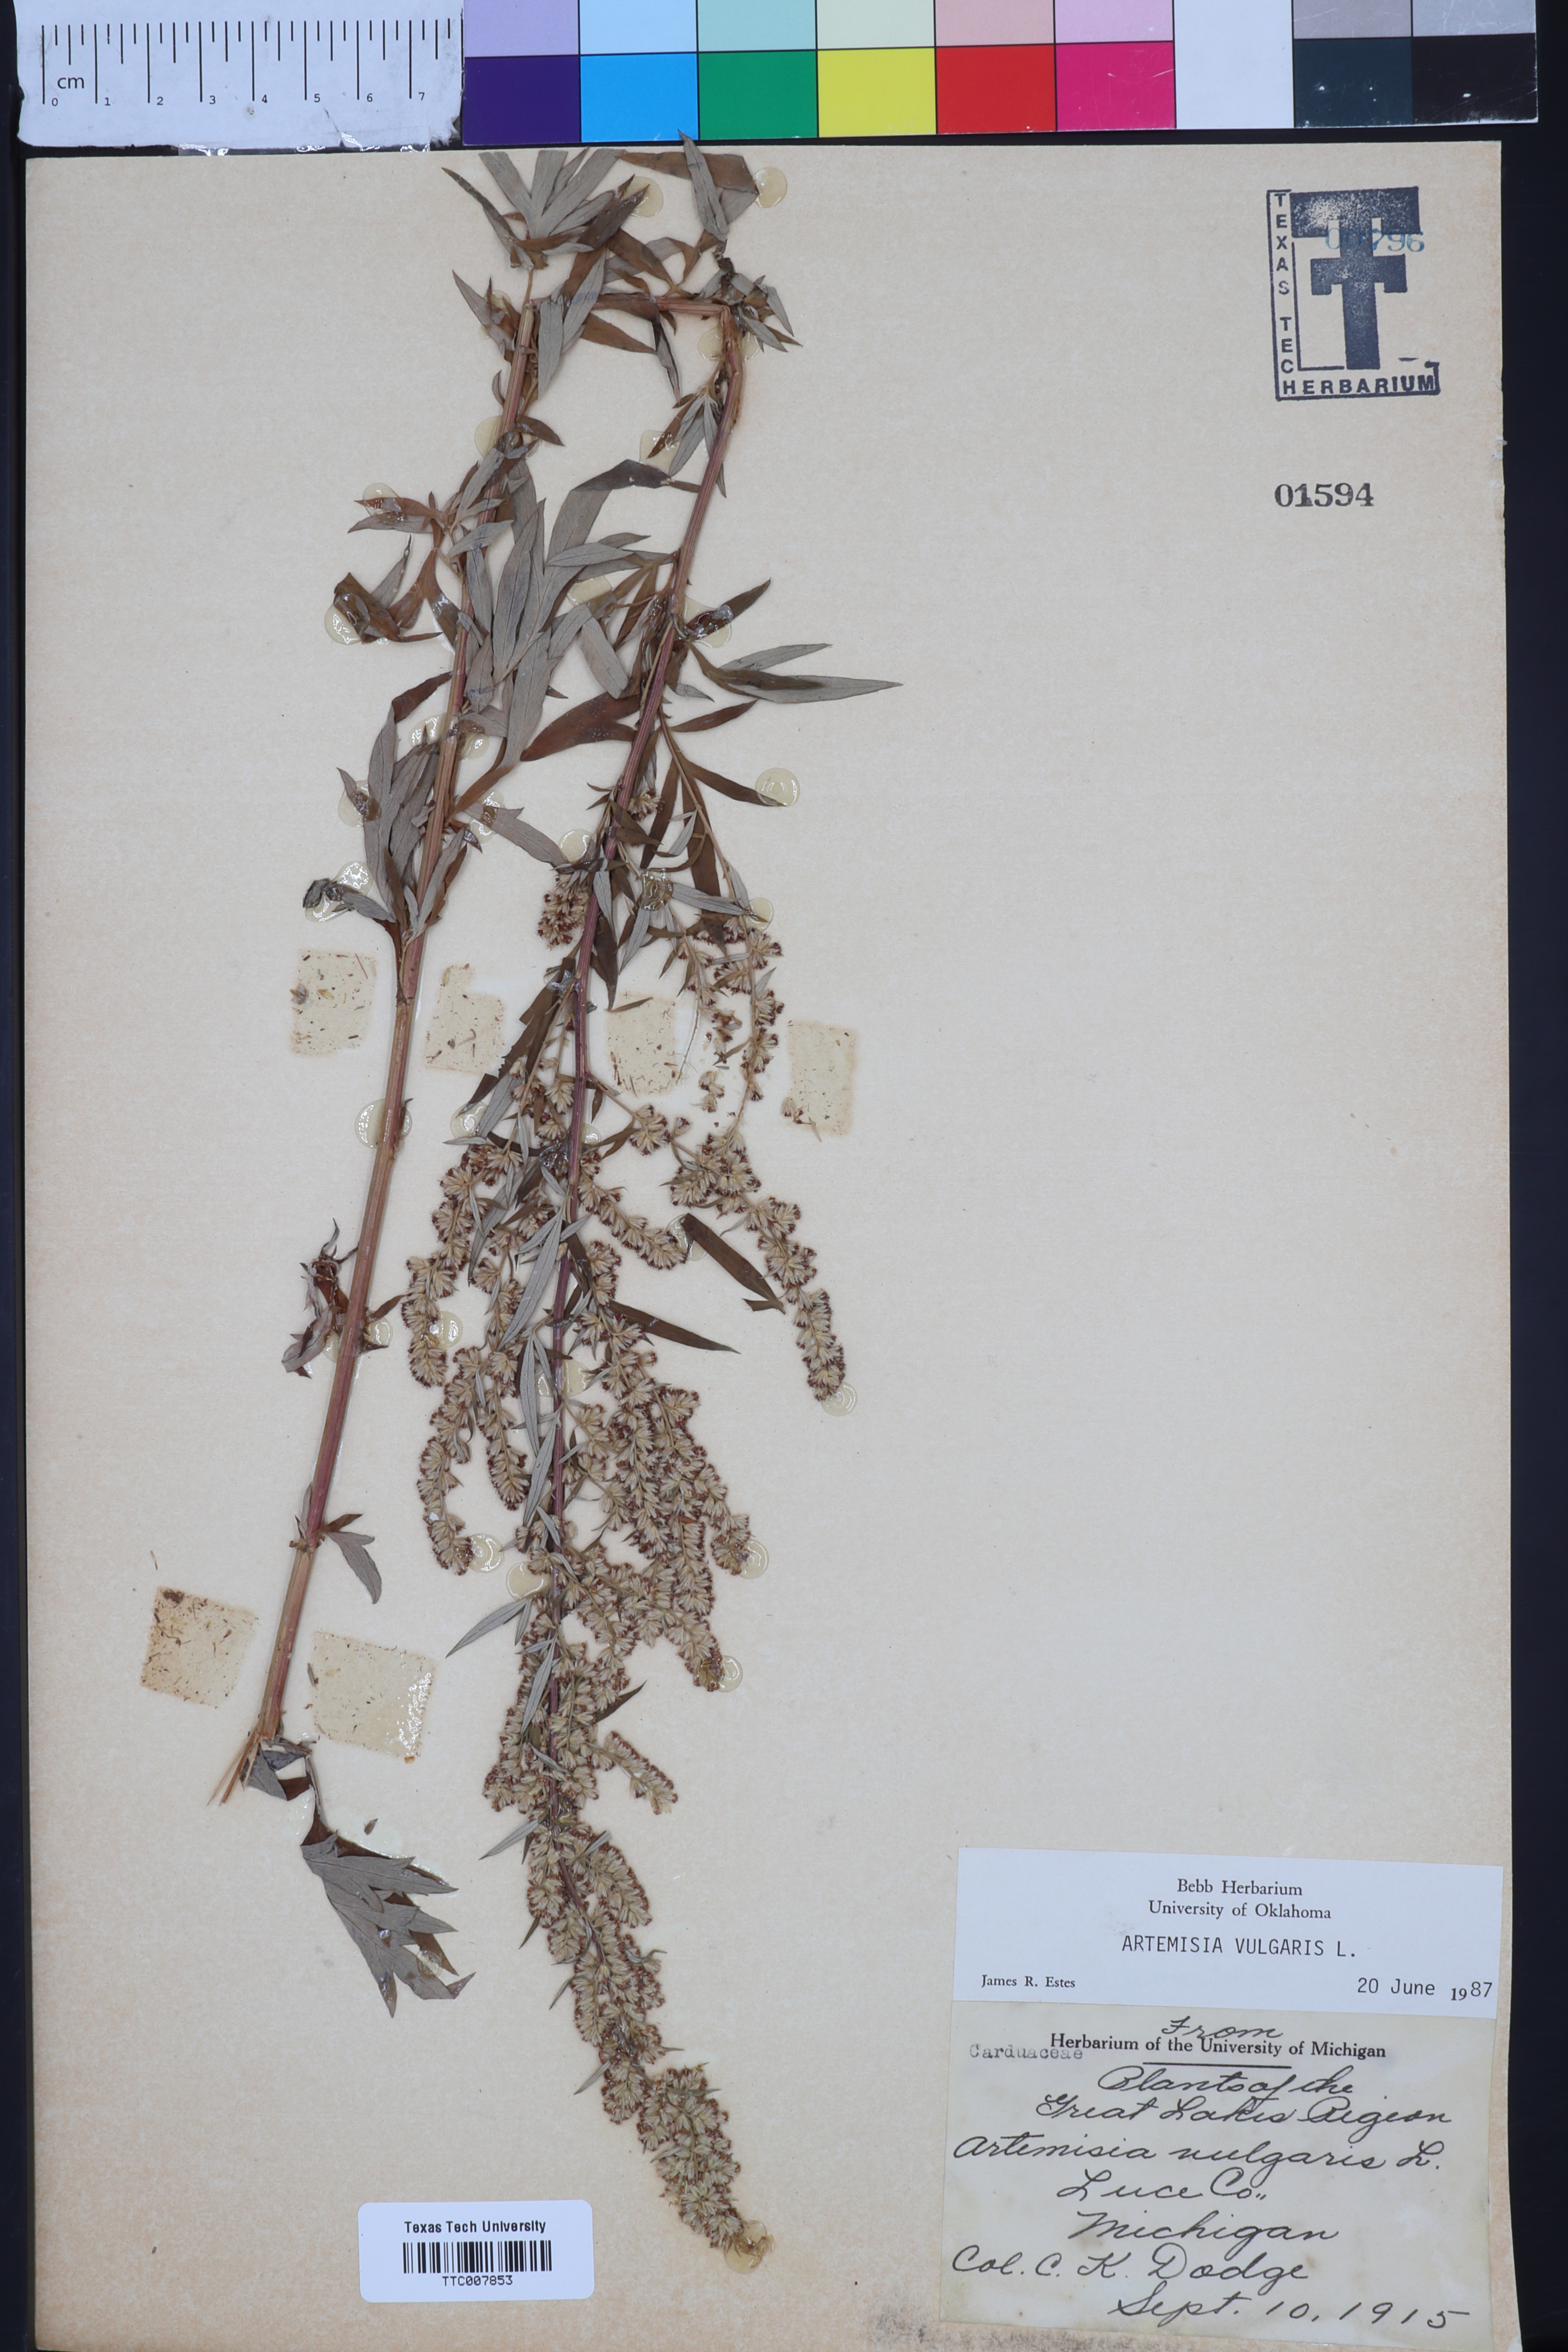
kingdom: Plantae
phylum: Tracheophyta
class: Magnoliopsida
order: Asterales
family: Asteraceae
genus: Artemisia
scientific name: Artemisia vulgaris
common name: Mugwort
